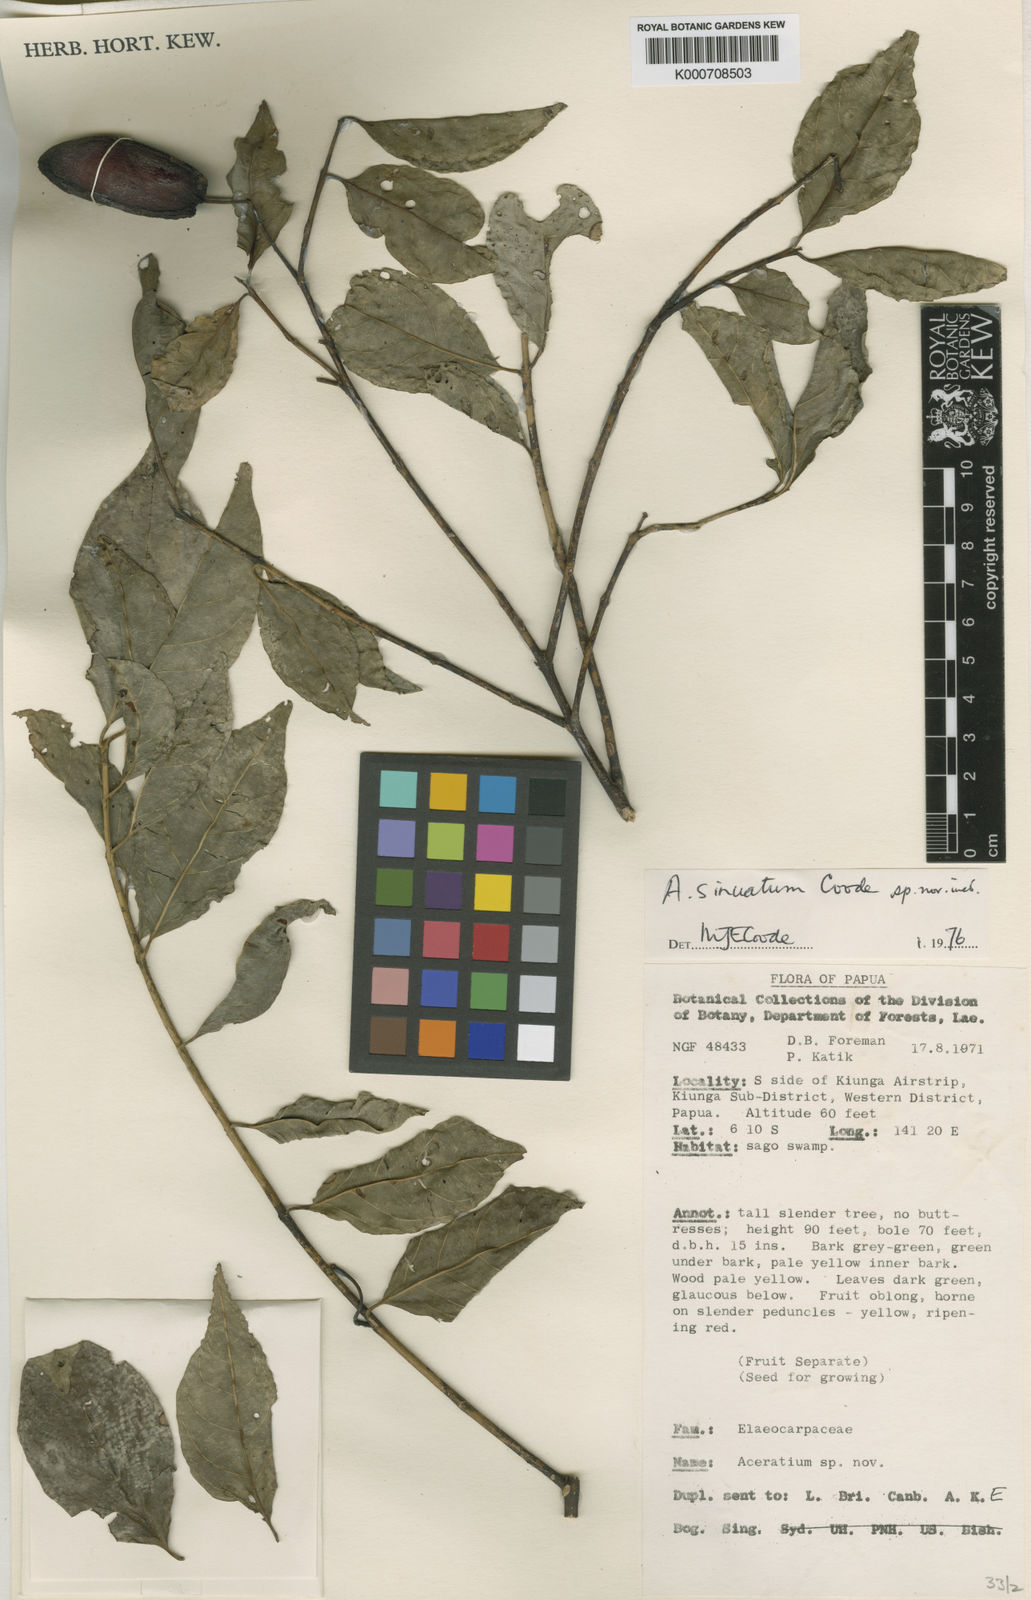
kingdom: Plantae
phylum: Tracheophyta
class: Magnoliopsida
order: Oxalidales
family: Elaeocarpaceae
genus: Aceratium
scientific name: Aceratium sinuatum
